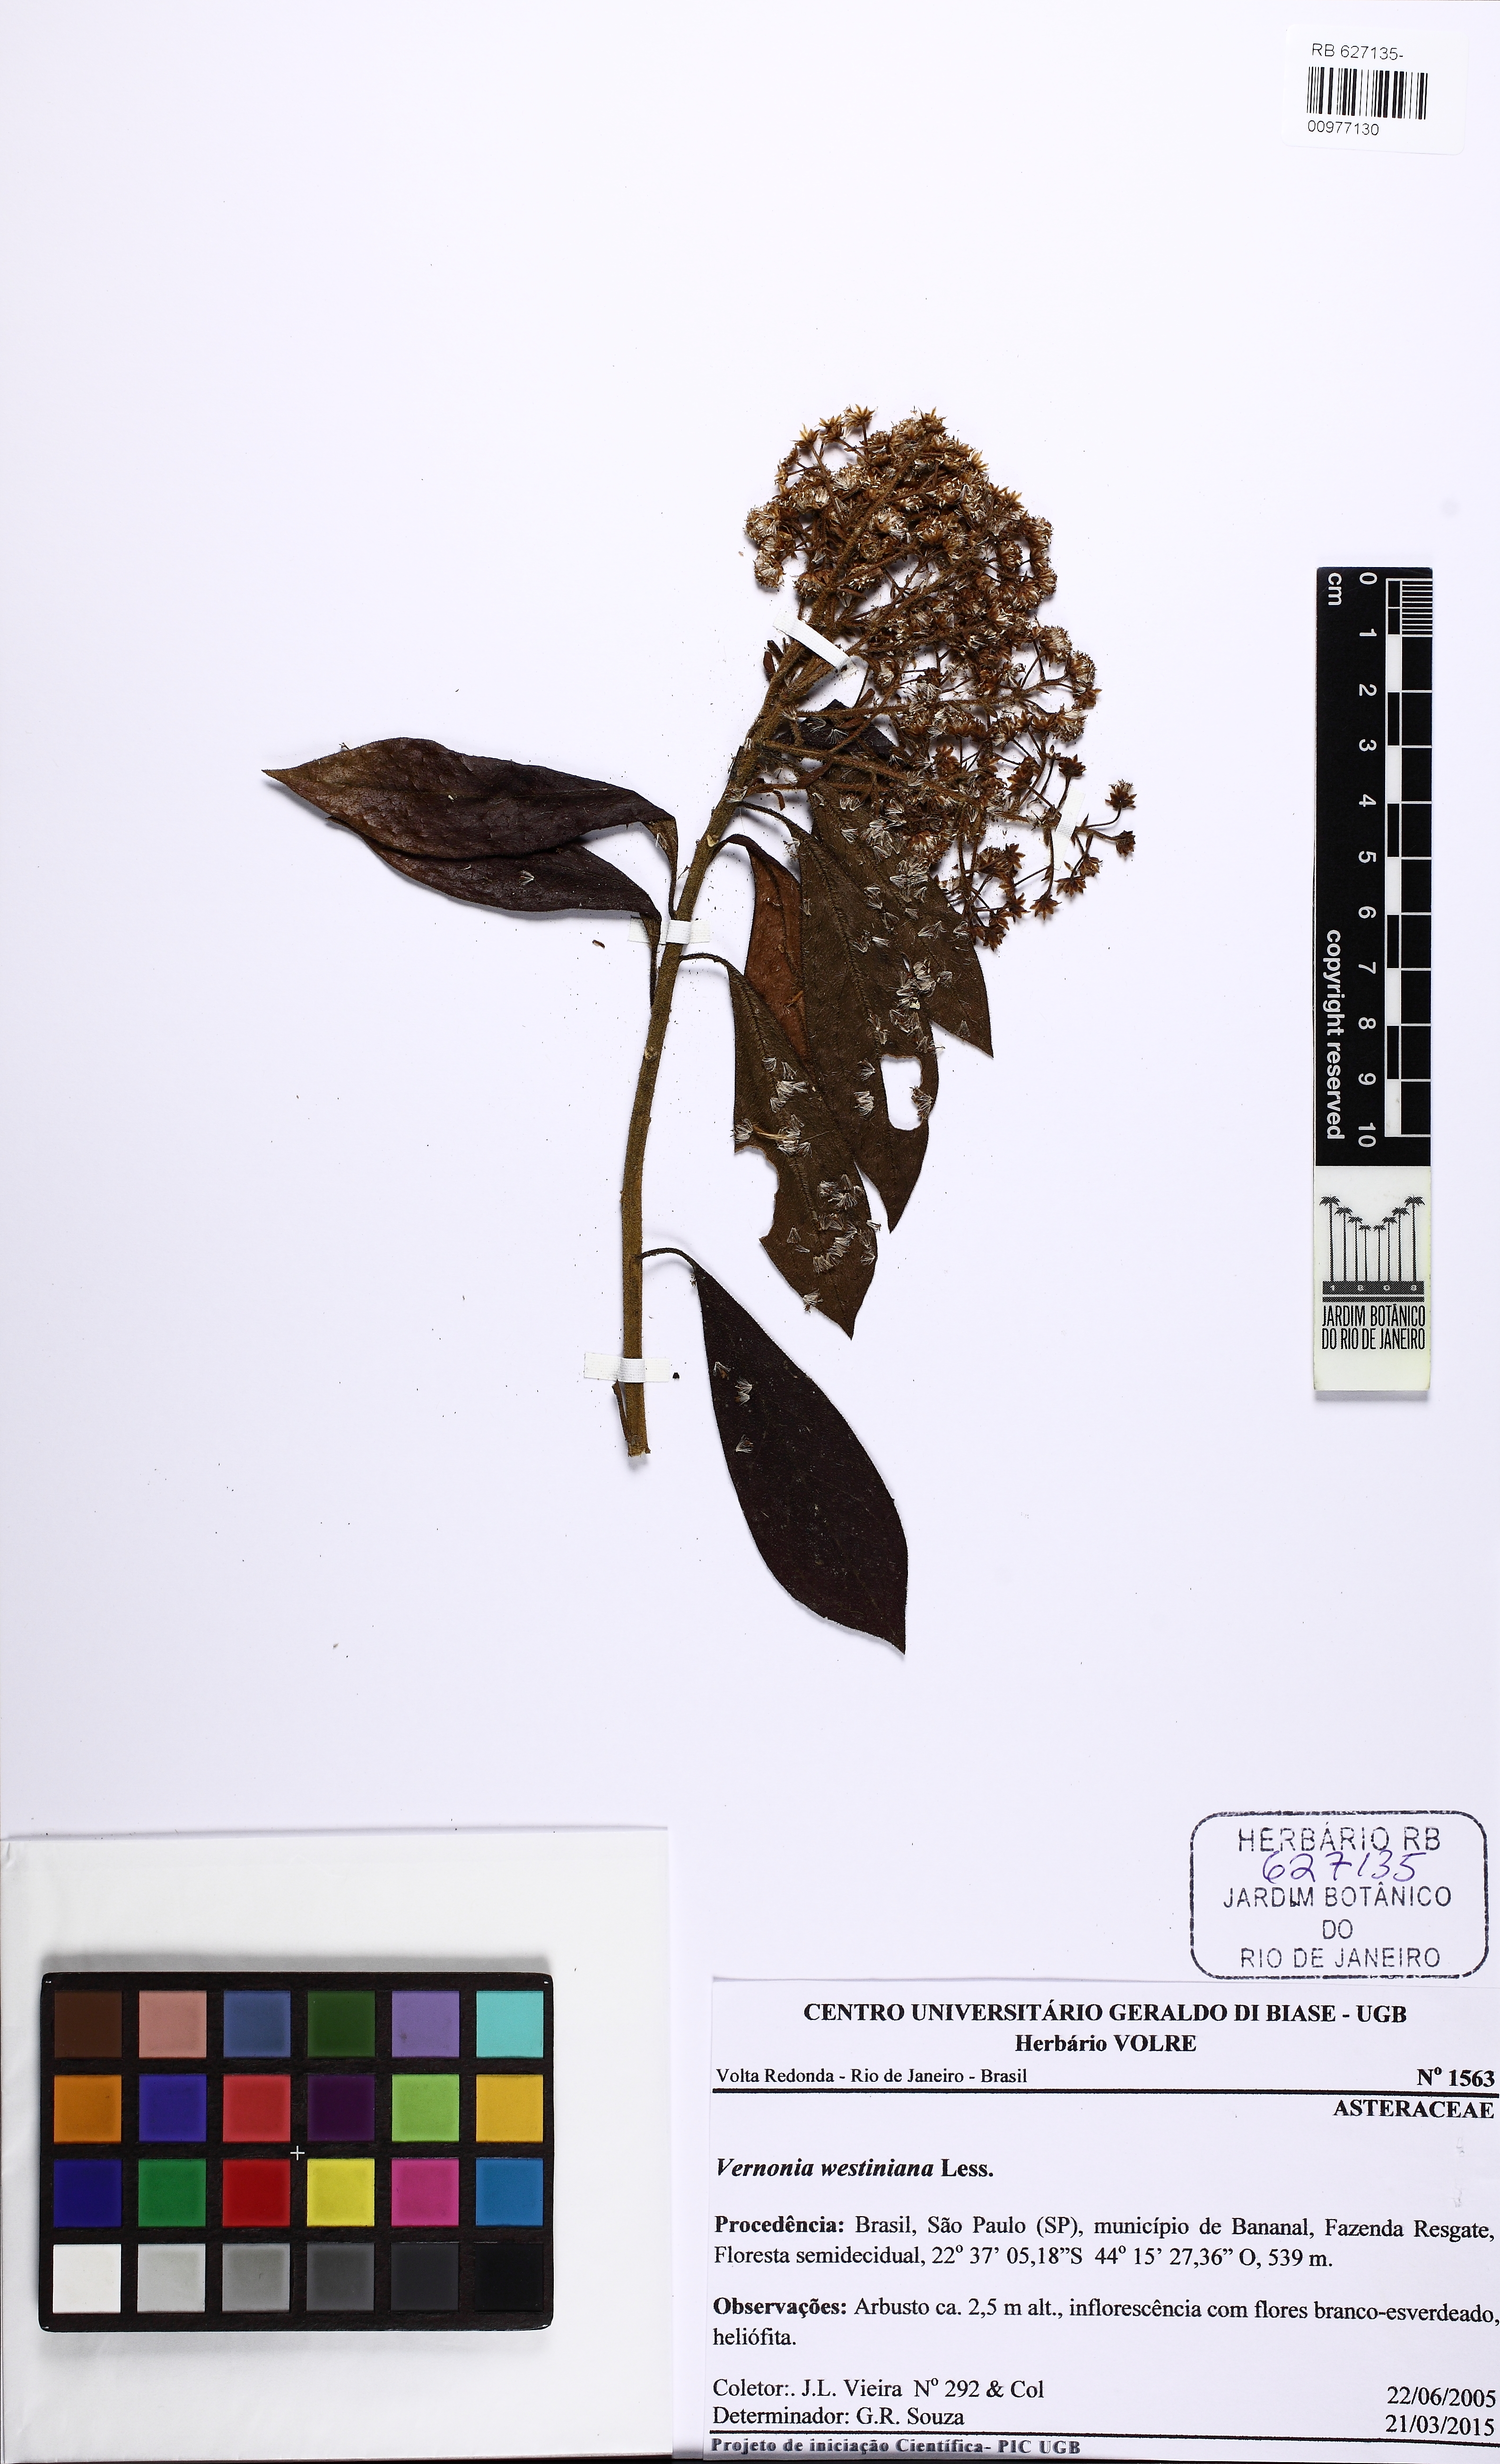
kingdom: Plantae
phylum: Tracheophyta
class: Magnoliopsida
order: Asterales
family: Asteraceae
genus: Vernonanthura
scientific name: Vernonanthura westiniana
